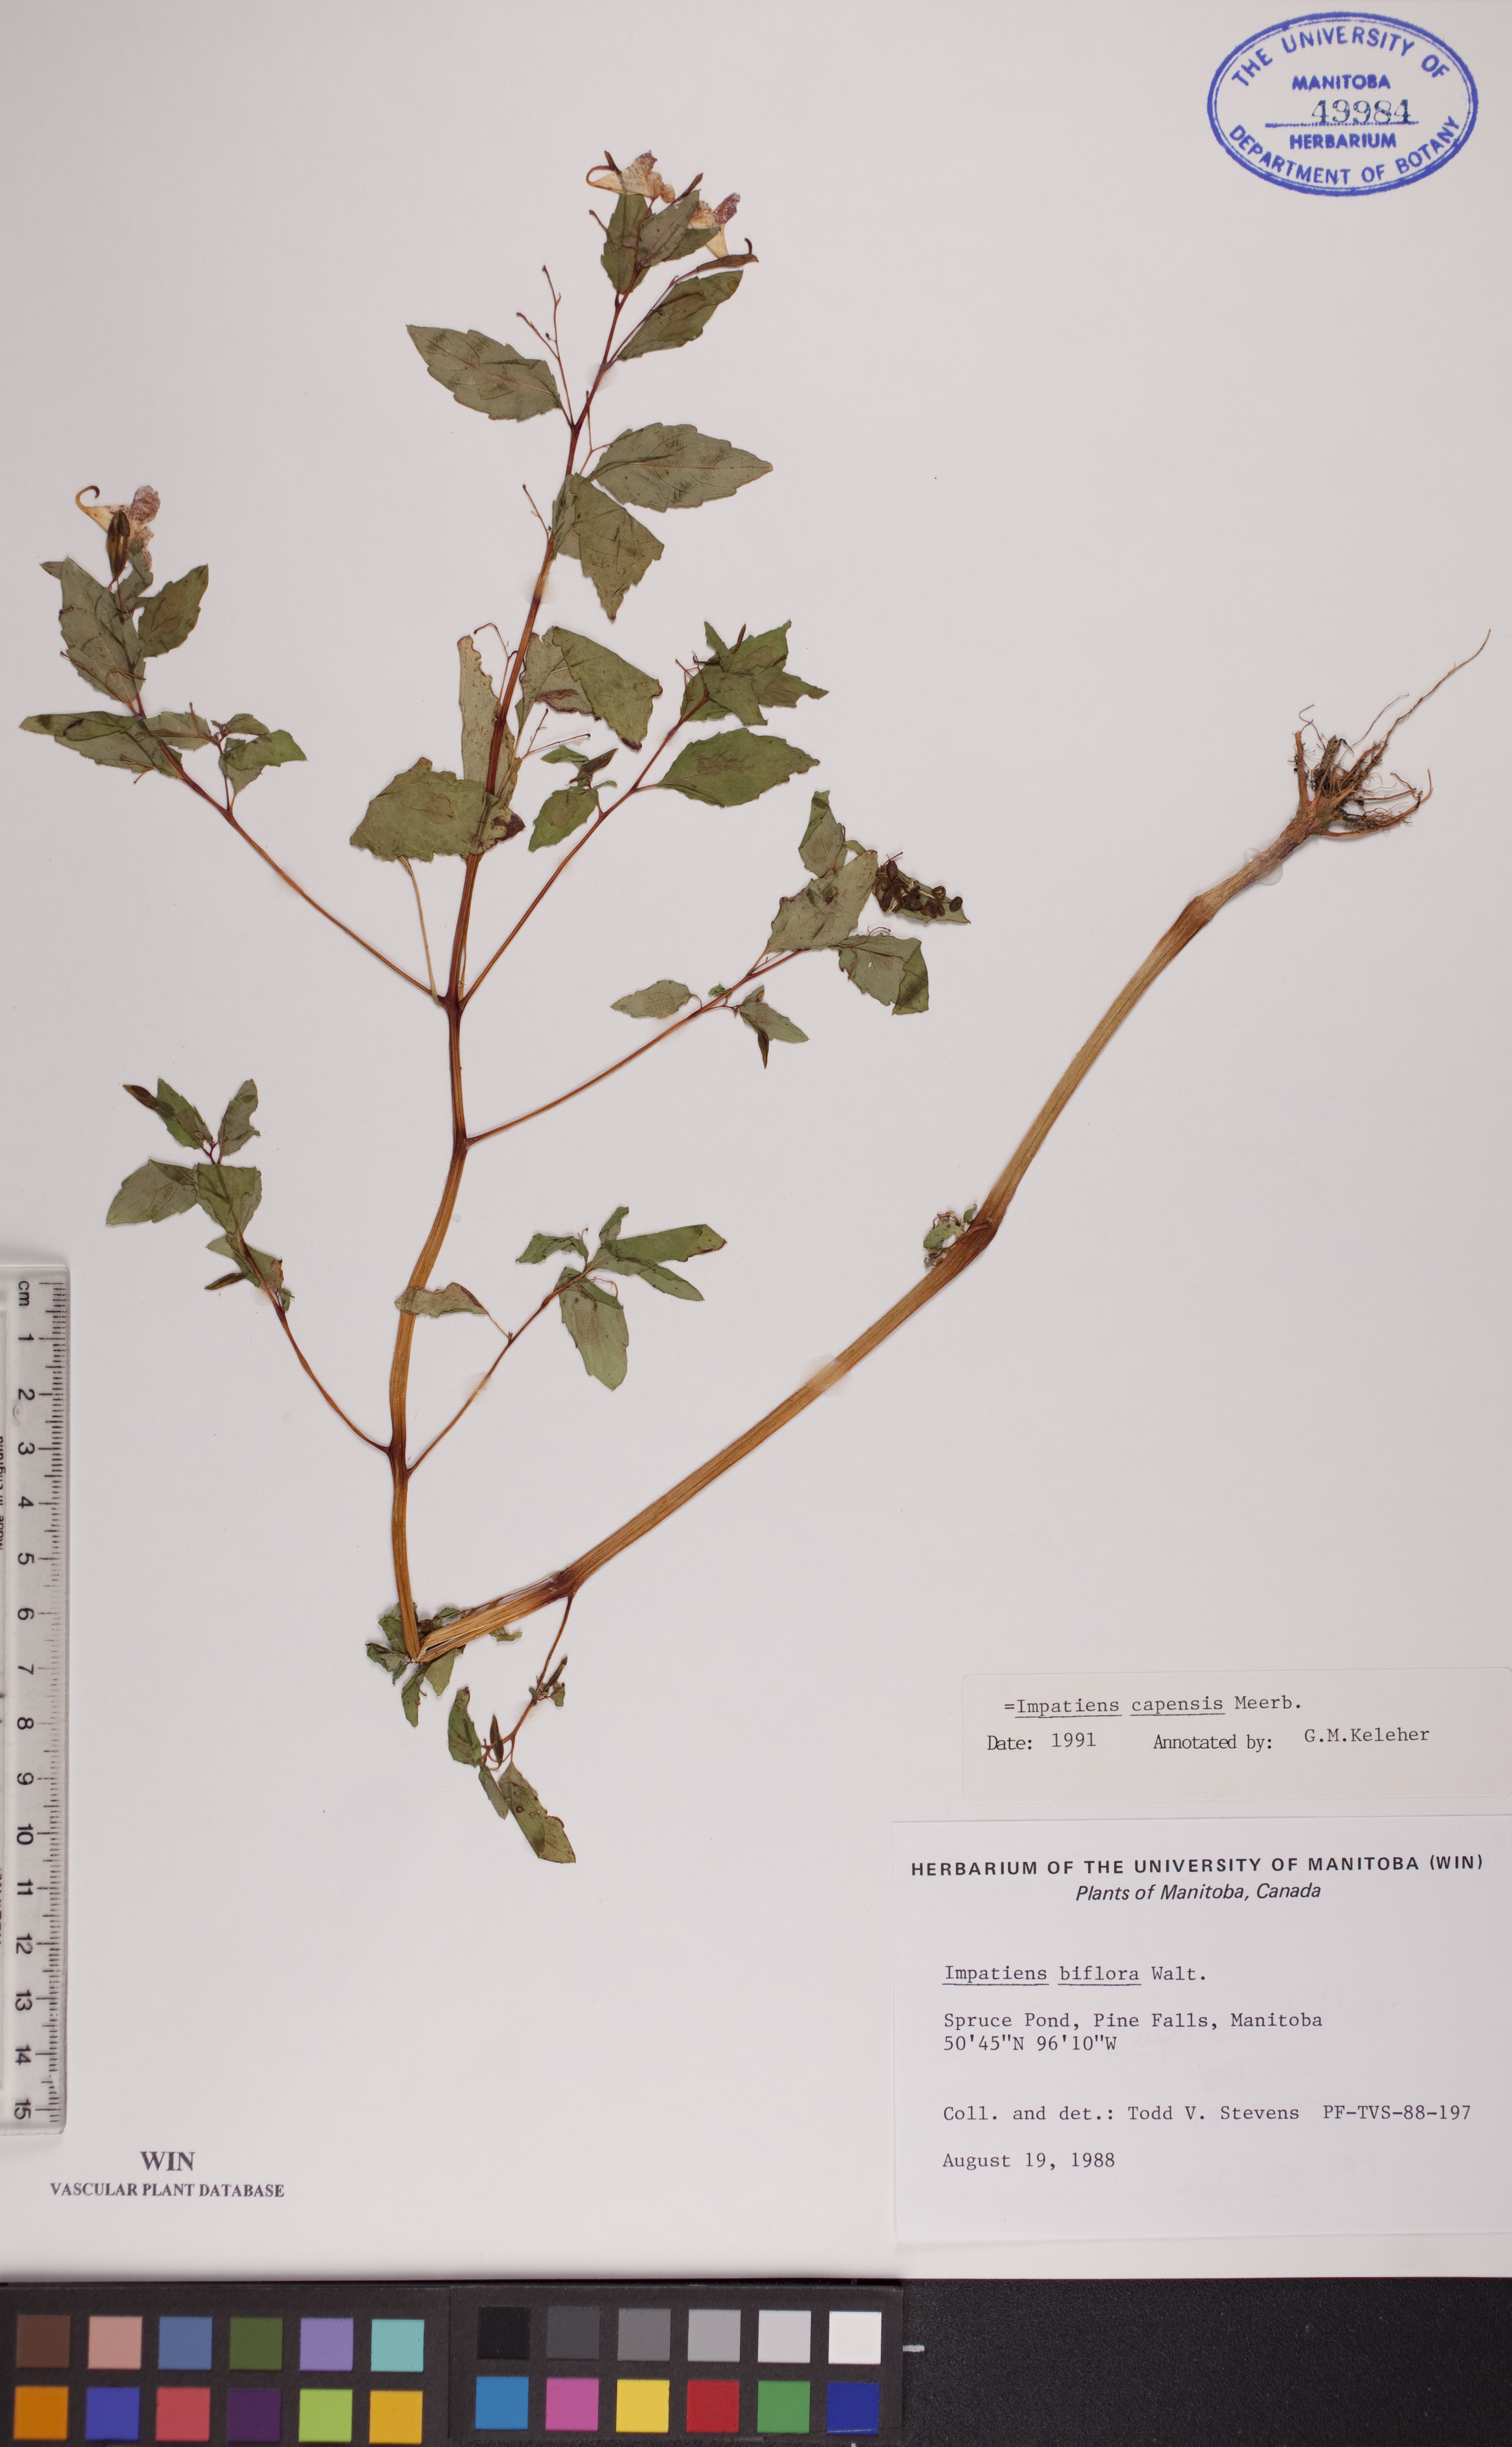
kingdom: Plantae
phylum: Tracheophyta
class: Magnoliopsida
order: Ericales
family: Balsaminaceae
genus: Impatiens
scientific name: Impatiens capensis
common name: Orange balsam
